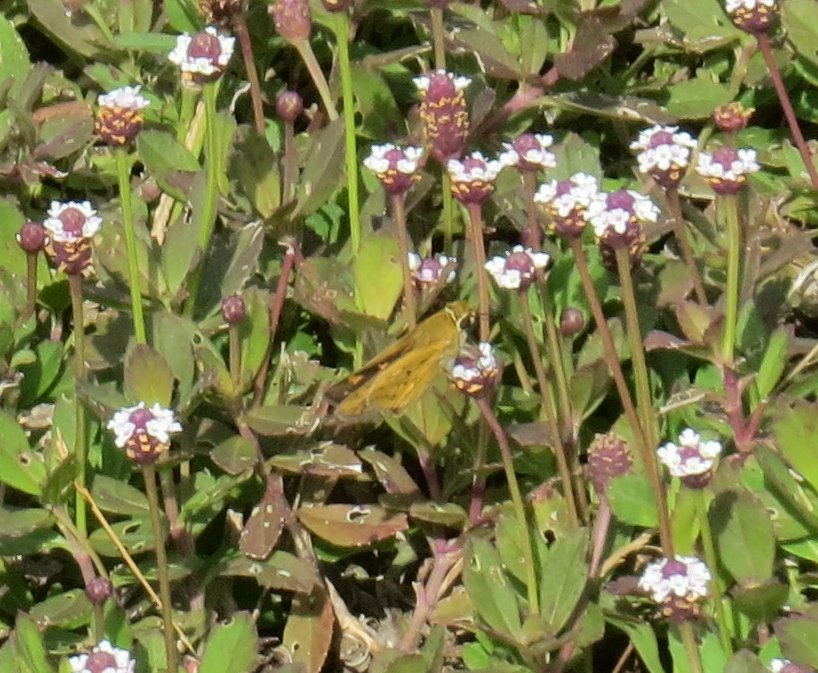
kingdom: Animalia
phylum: Arthropoda
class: Insecta
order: Lepidoptera
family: Hesperiidae
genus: Hylephila
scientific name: Hylephila phyleus
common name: Fiery Skipper
